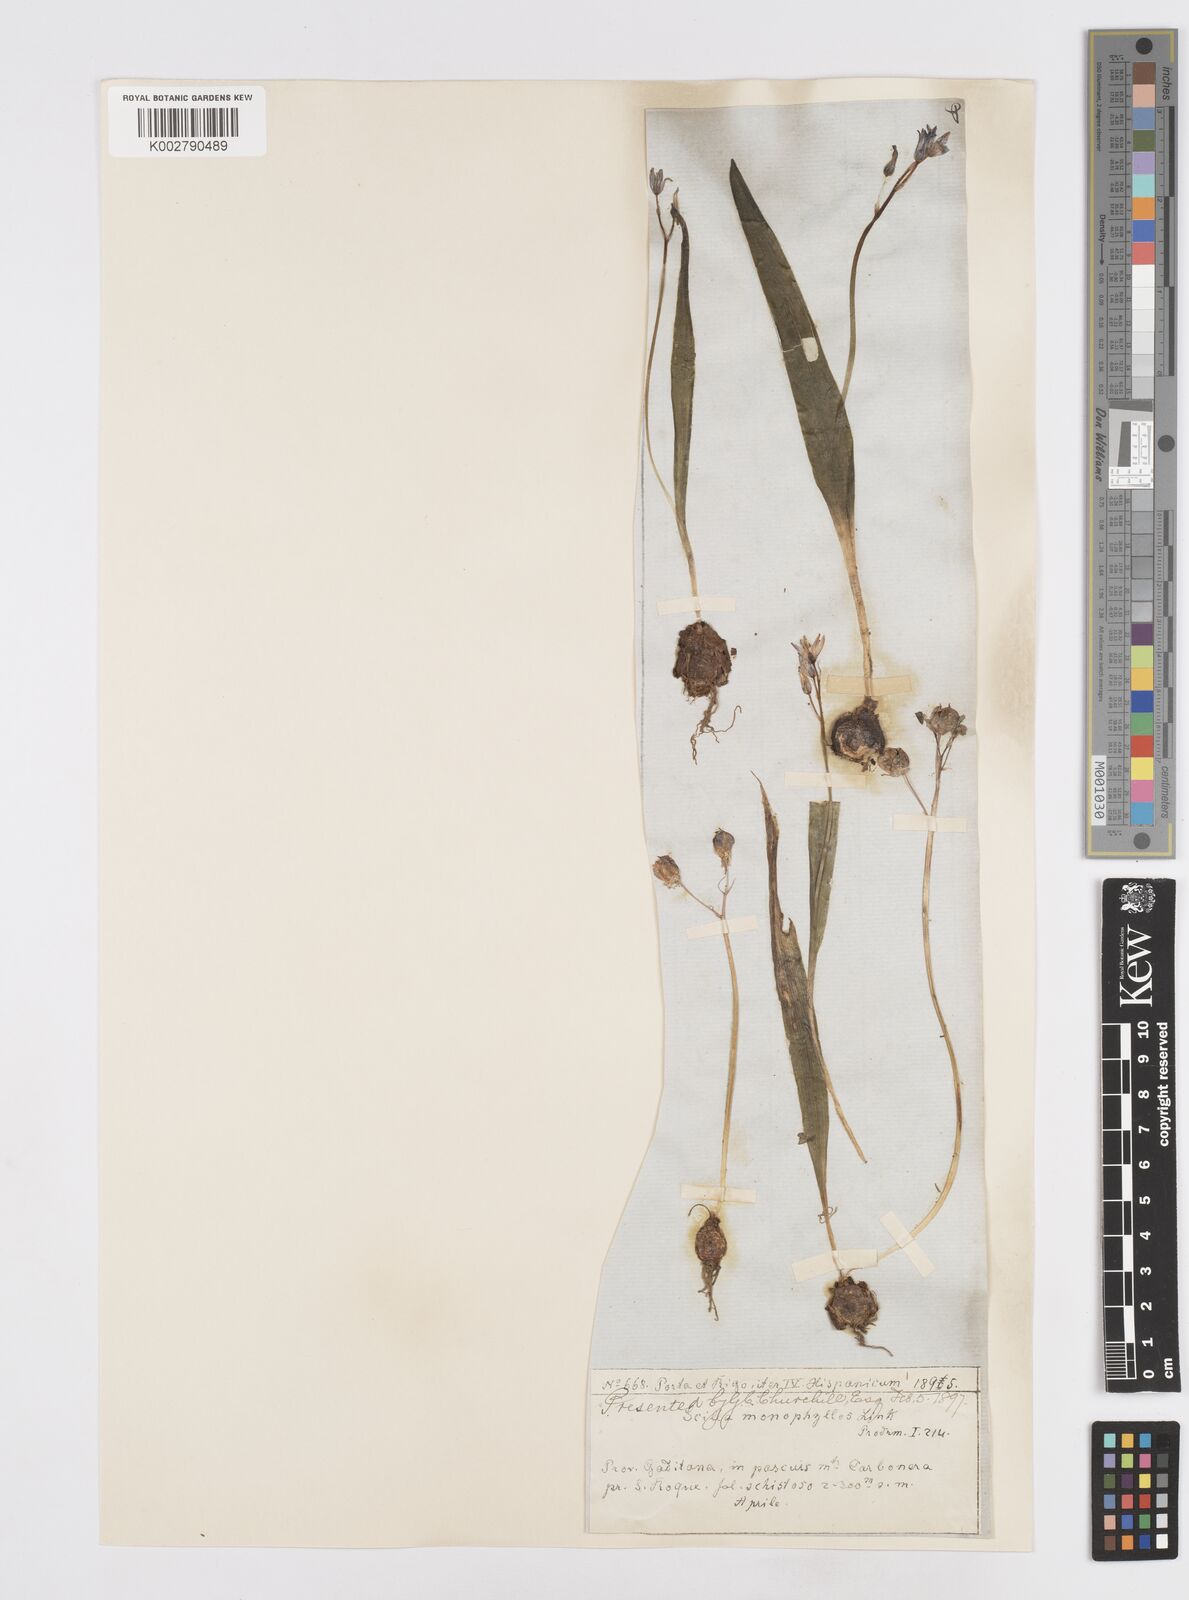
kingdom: Plantae
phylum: Tracheophyta
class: Liliopsida
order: Asparagales
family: Asparagaceae
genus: Scilla
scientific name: Scilla monophyllos
